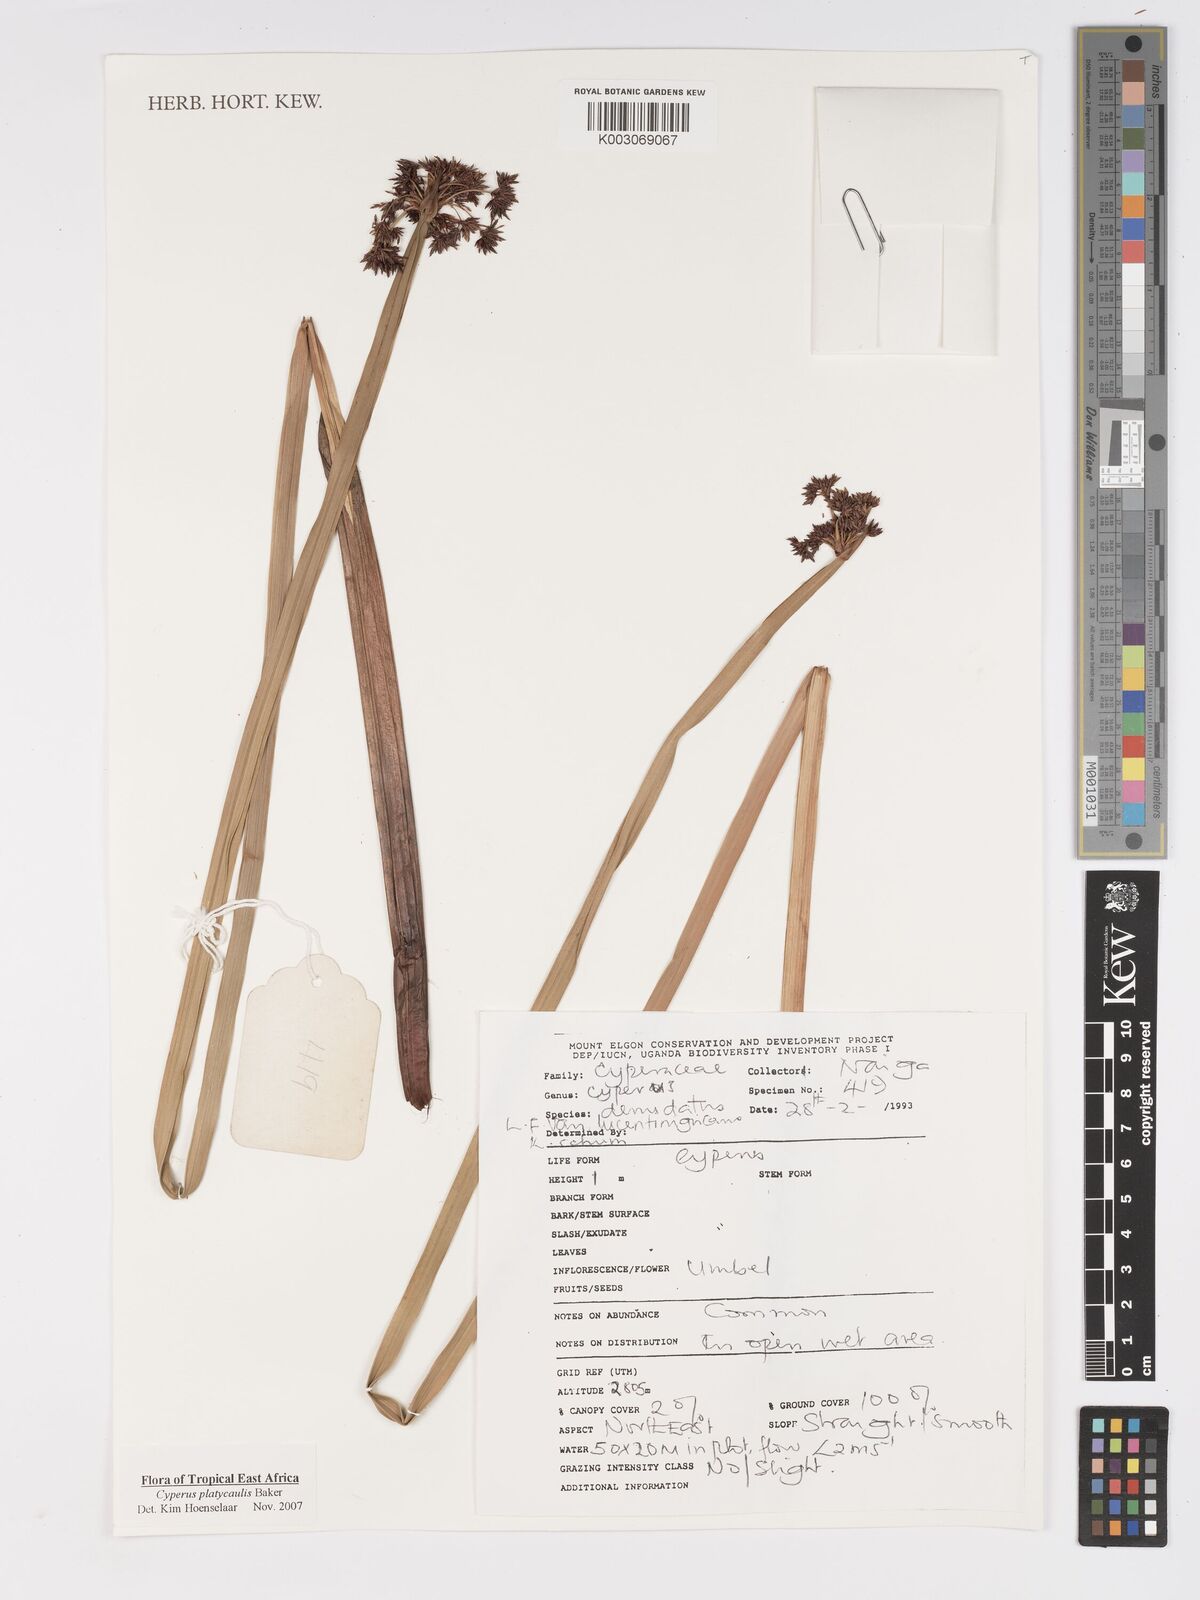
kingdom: Plantae
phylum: Tracheophyta
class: Liliopsida
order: Poales
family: Cyperaceae
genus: Cyperus
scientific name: Cyperus platycaulis
